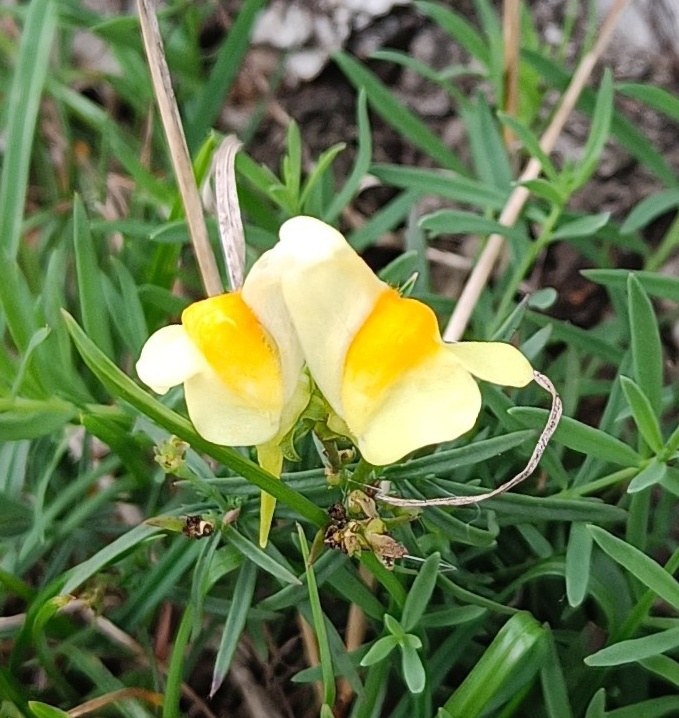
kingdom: Plantae
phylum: Tracheophyta
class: Magnoliopsida
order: Lamiales
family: Plantaginaceae
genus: Linaria
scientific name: Linaria vulgaris
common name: Almindelig torskemund
